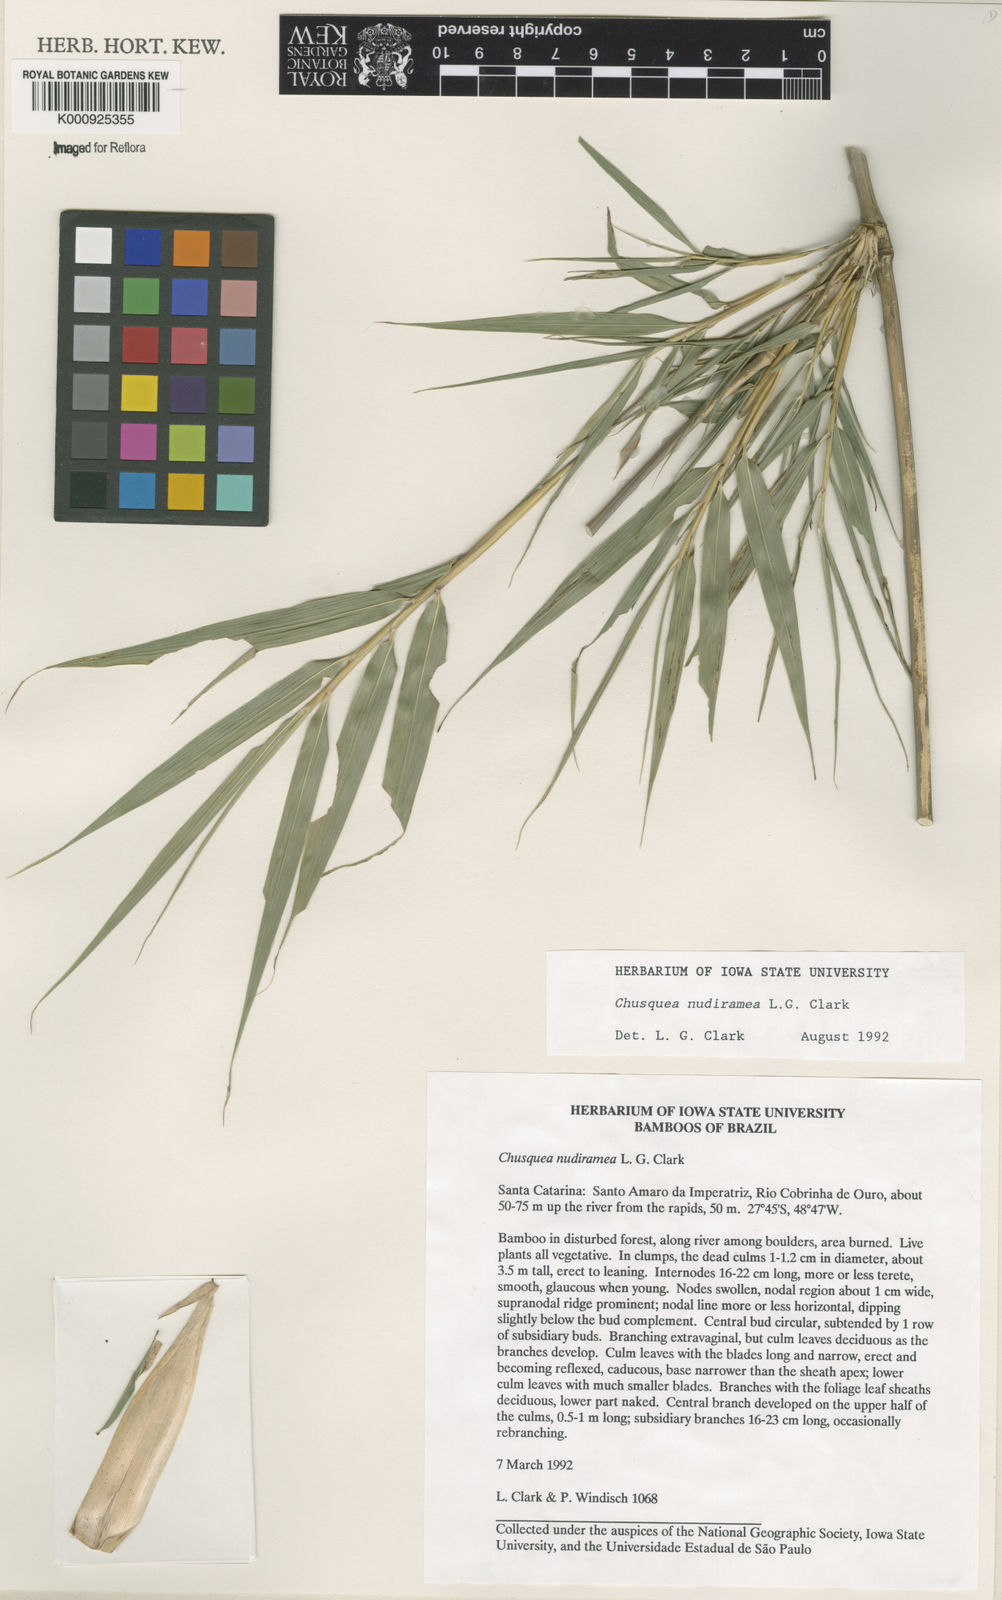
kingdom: Plantae
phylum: Tracheophyta
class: Liliopsida
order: Poales
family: Poaceae
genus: Chusquea
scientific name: Chusquea nudiramea
